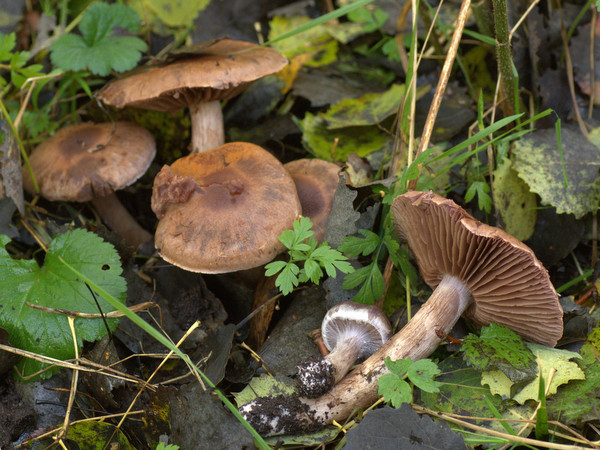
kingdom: Fungi
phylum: Basidiomycota
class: Agaricomycetes
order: Agaricales
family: Cortinariaceae
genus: Cortinarius
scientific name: Cortinarius lucorum
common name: aspe-slørhat
